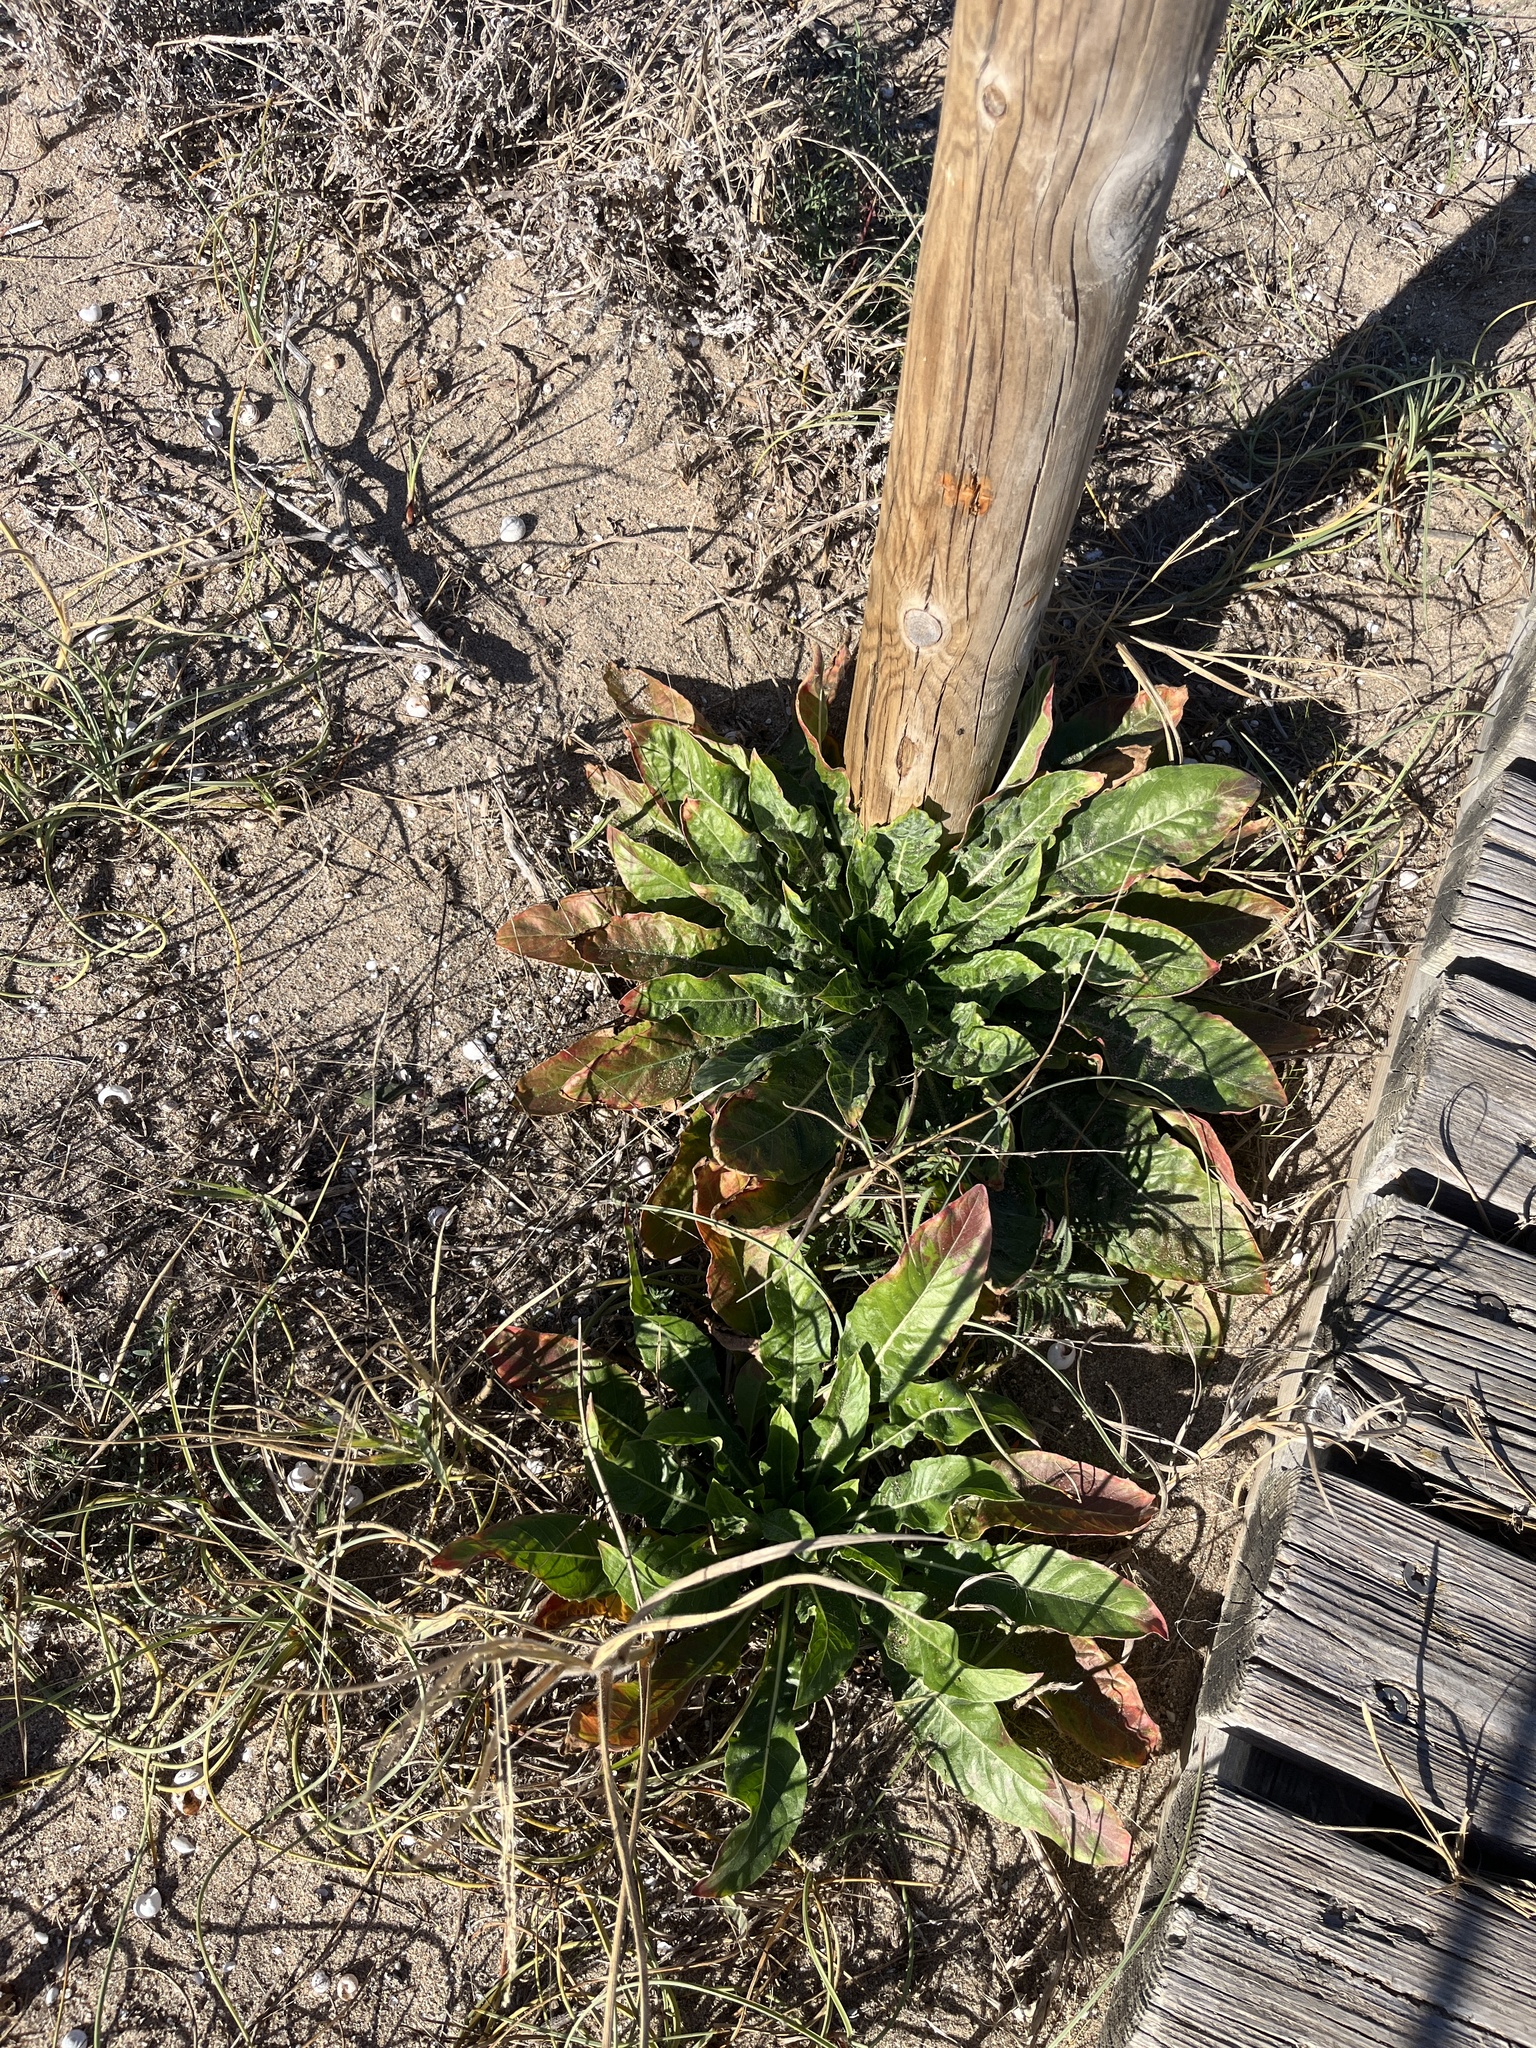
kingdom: Plantae
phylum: Tracheophyta
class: Magnoliopsida
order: Myrtales
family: Onagraceae
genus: Oenothera
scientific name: Oenothera glazioviana
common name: Large-flowered evening-primrose
